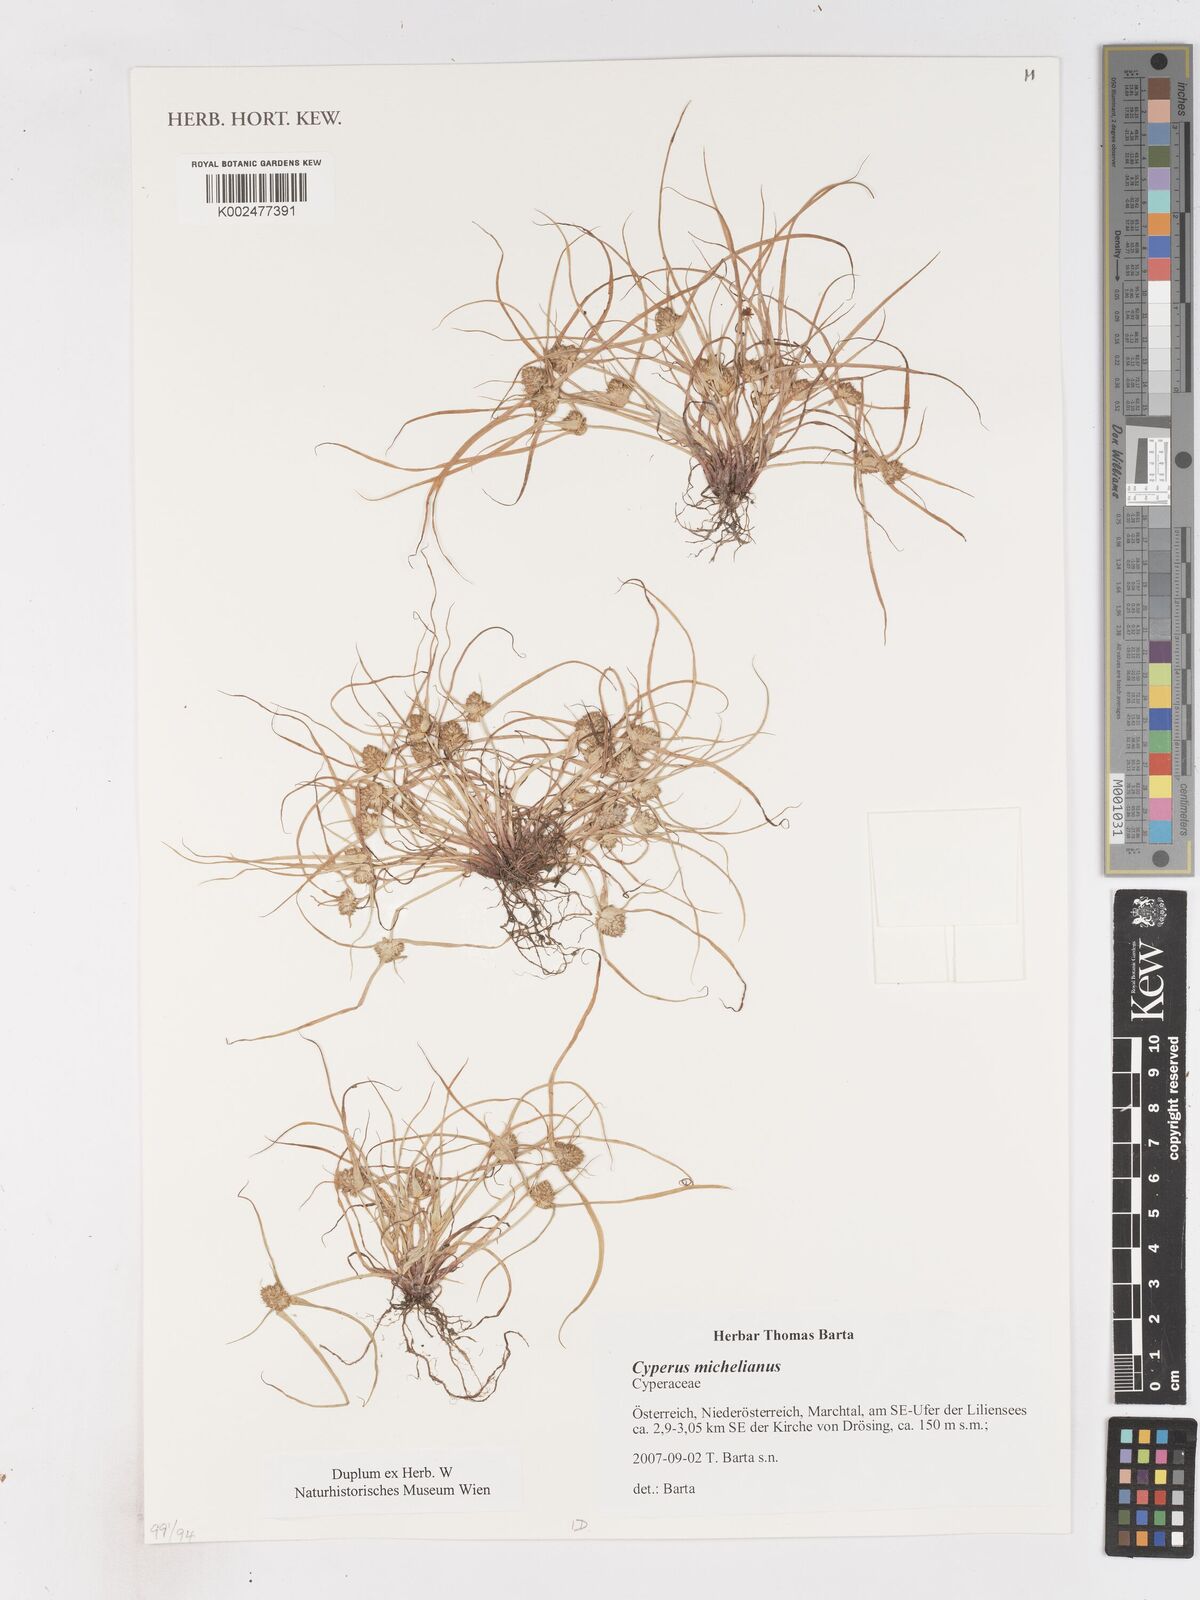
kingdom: Plantae
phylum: Tracheophyta
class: Liliopsida
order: Poales
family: Cyperaceae
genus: Cyperus
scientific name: Cyperus michelianus
